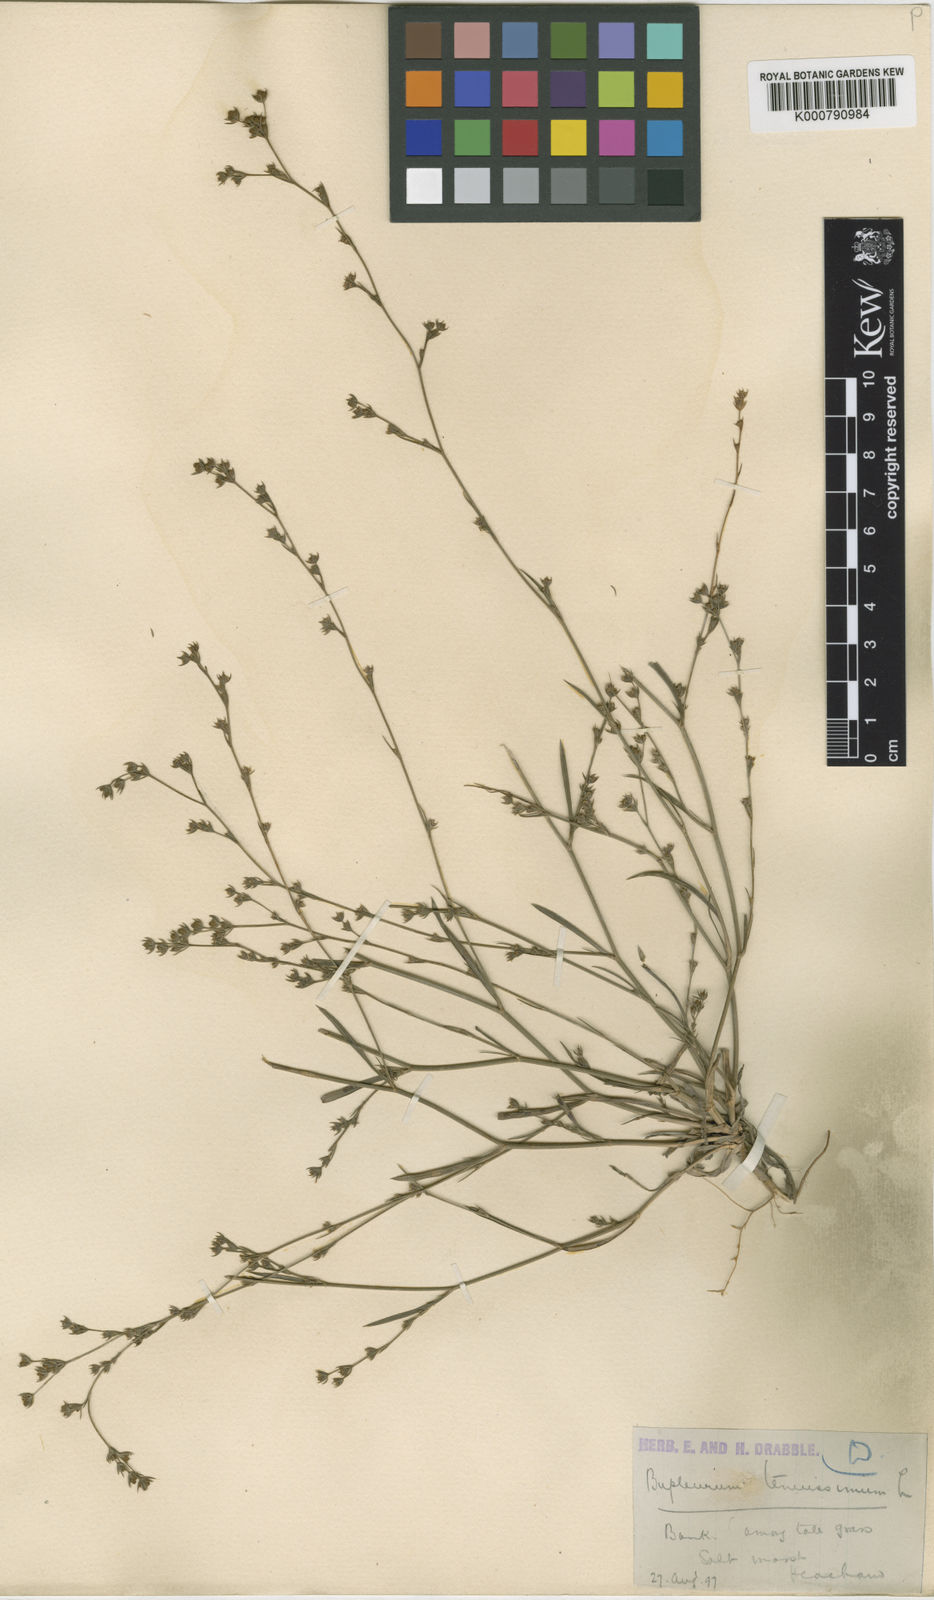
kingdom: Plantae
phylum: Tracheophyta
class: Magnoliopsida
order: Apiales
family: Apiaceae
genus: Bupleurum
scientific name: Bupleurum tenuissimum
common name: Slender hare's-ear
